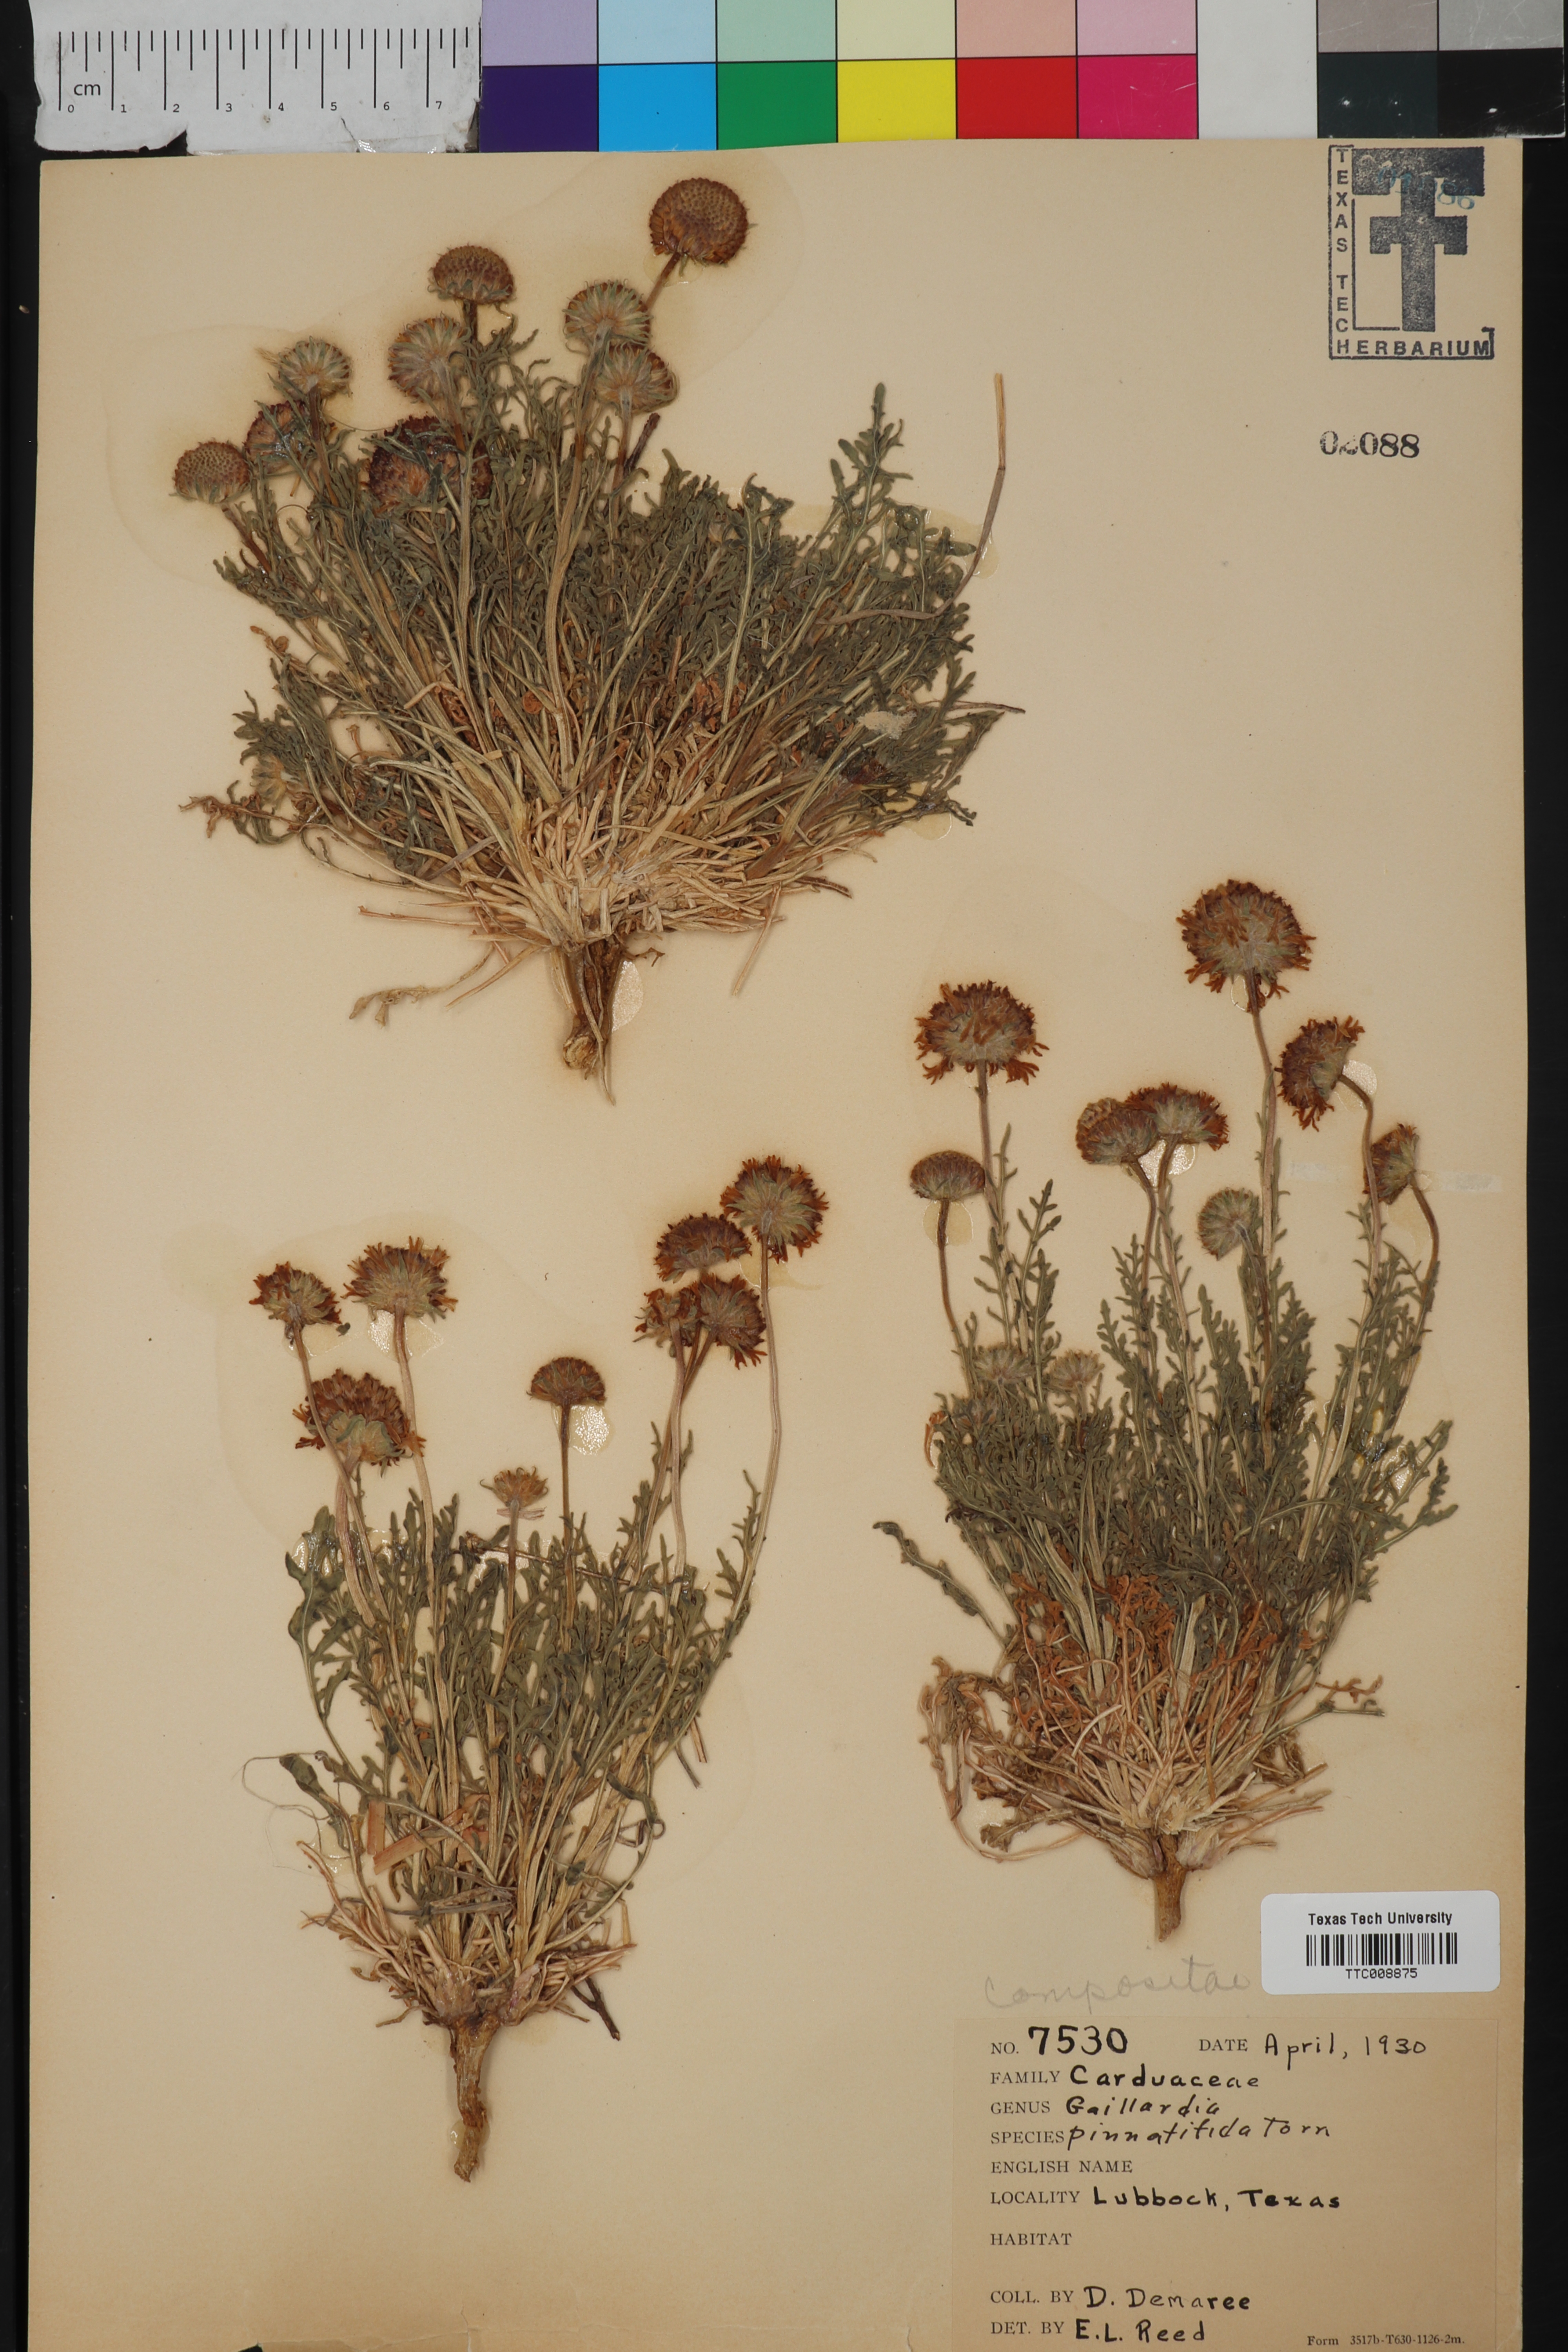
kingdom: Plantae
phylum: Tracheophyta
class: Magnoliopsida
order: Asterales
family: Asteraceae
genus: Gaillardia
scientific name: Gaillardia pinnatifida
